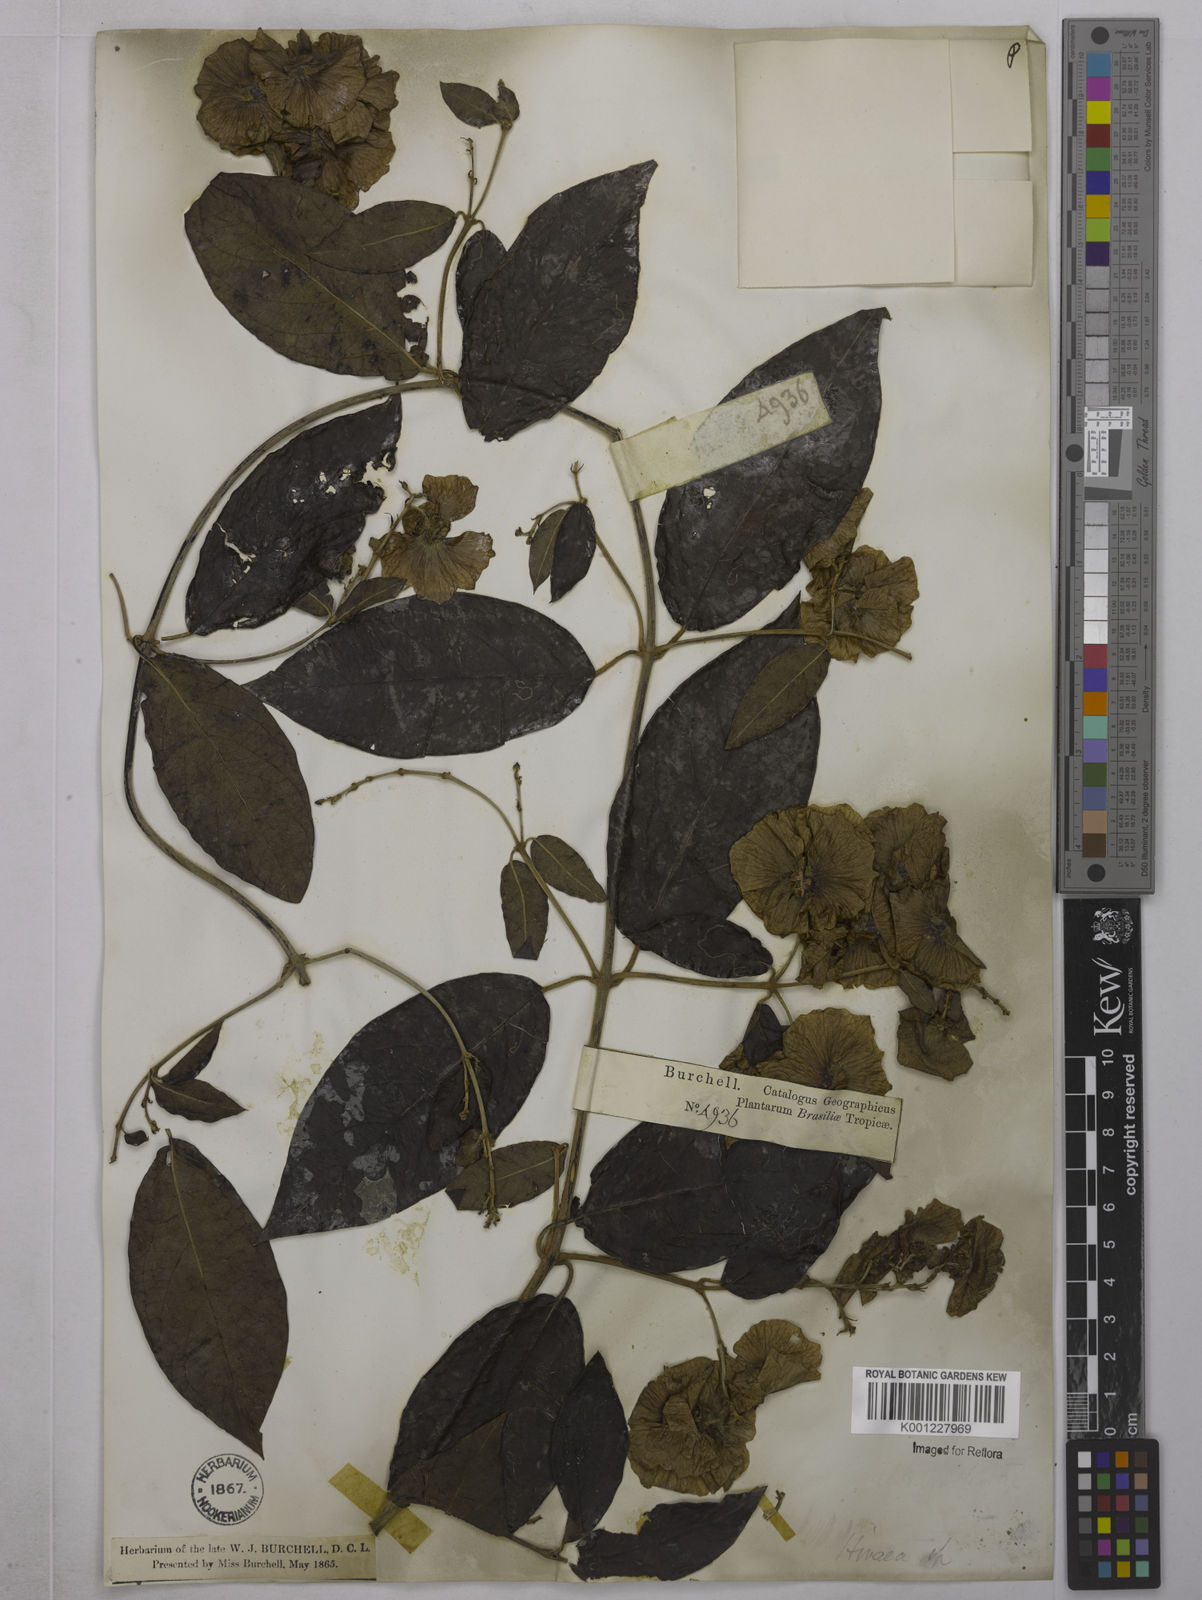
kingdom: Plantae
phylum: Tracheophyta
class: Magnoliopsida
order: Malpighiales
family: Malpighiaceae
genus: Alicia
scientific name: Alicia anisopetala
